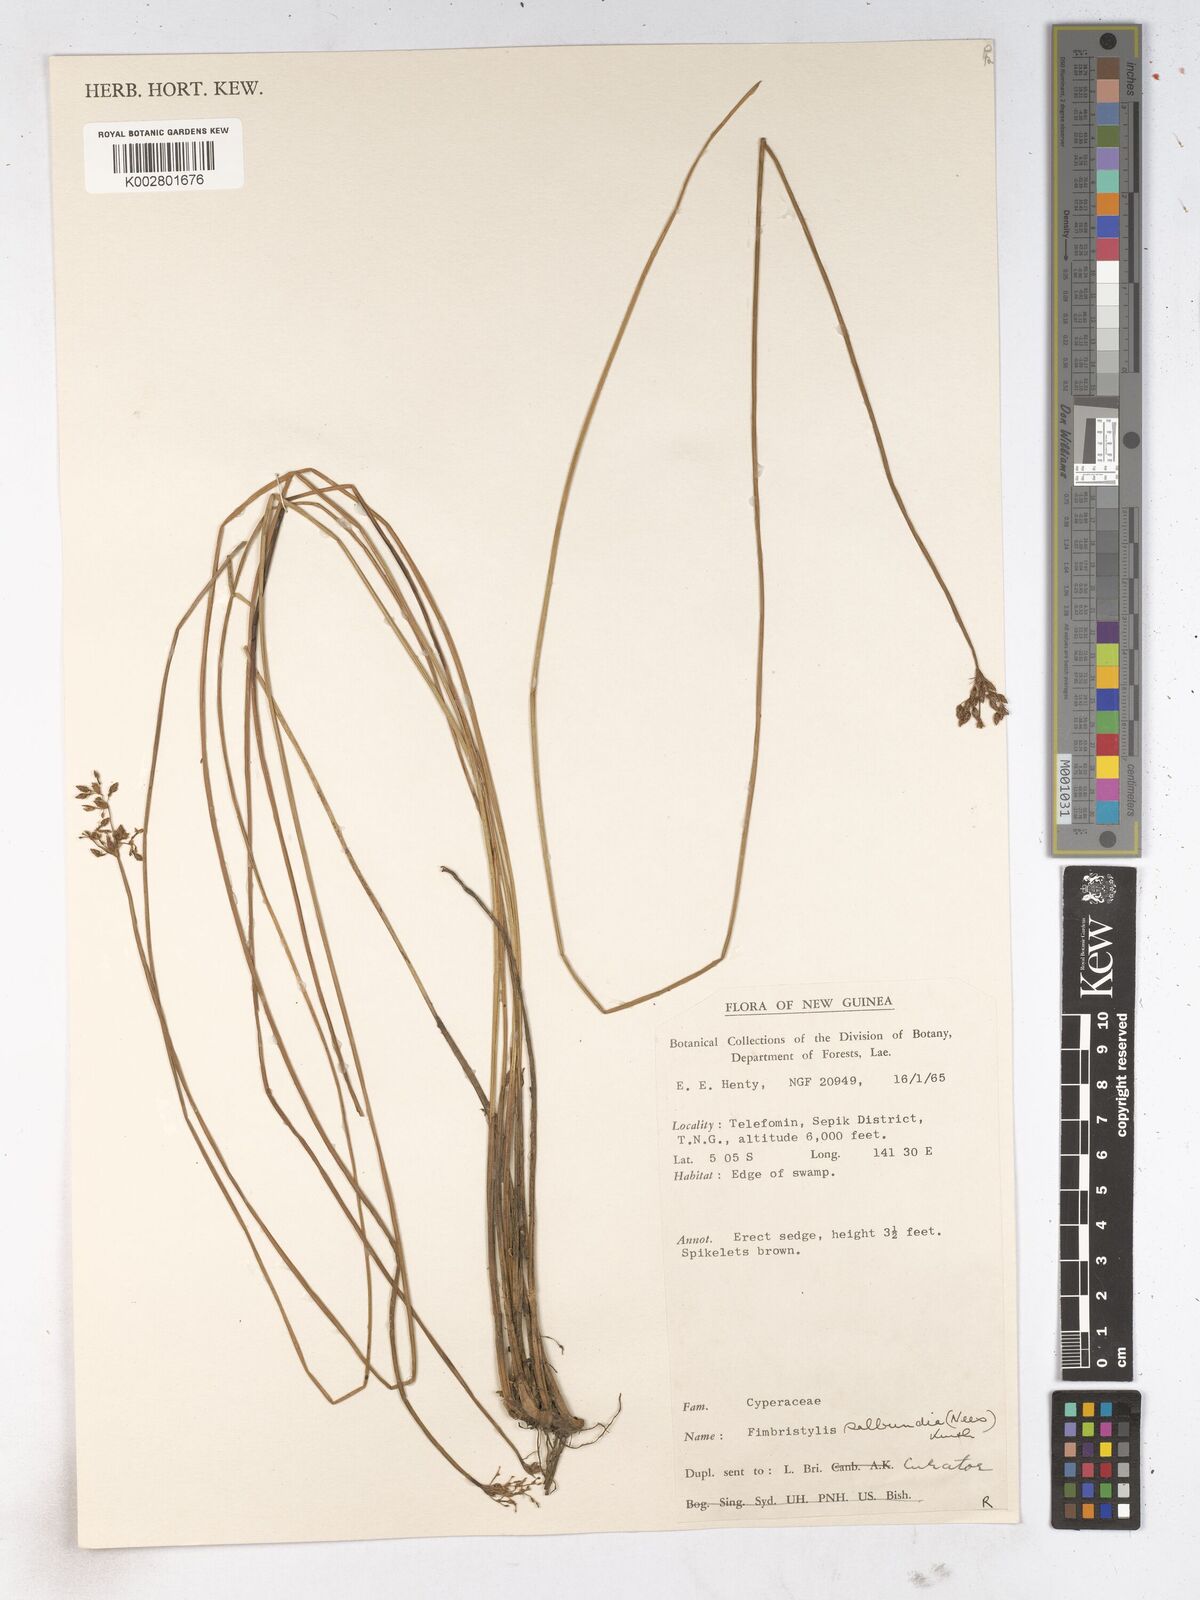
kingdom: Plantae
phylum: Tracheophyta
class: Liliopsida
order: Poales
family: Cyperaceae
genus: Fimbristylis
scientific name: Fimbristylis salbundia
